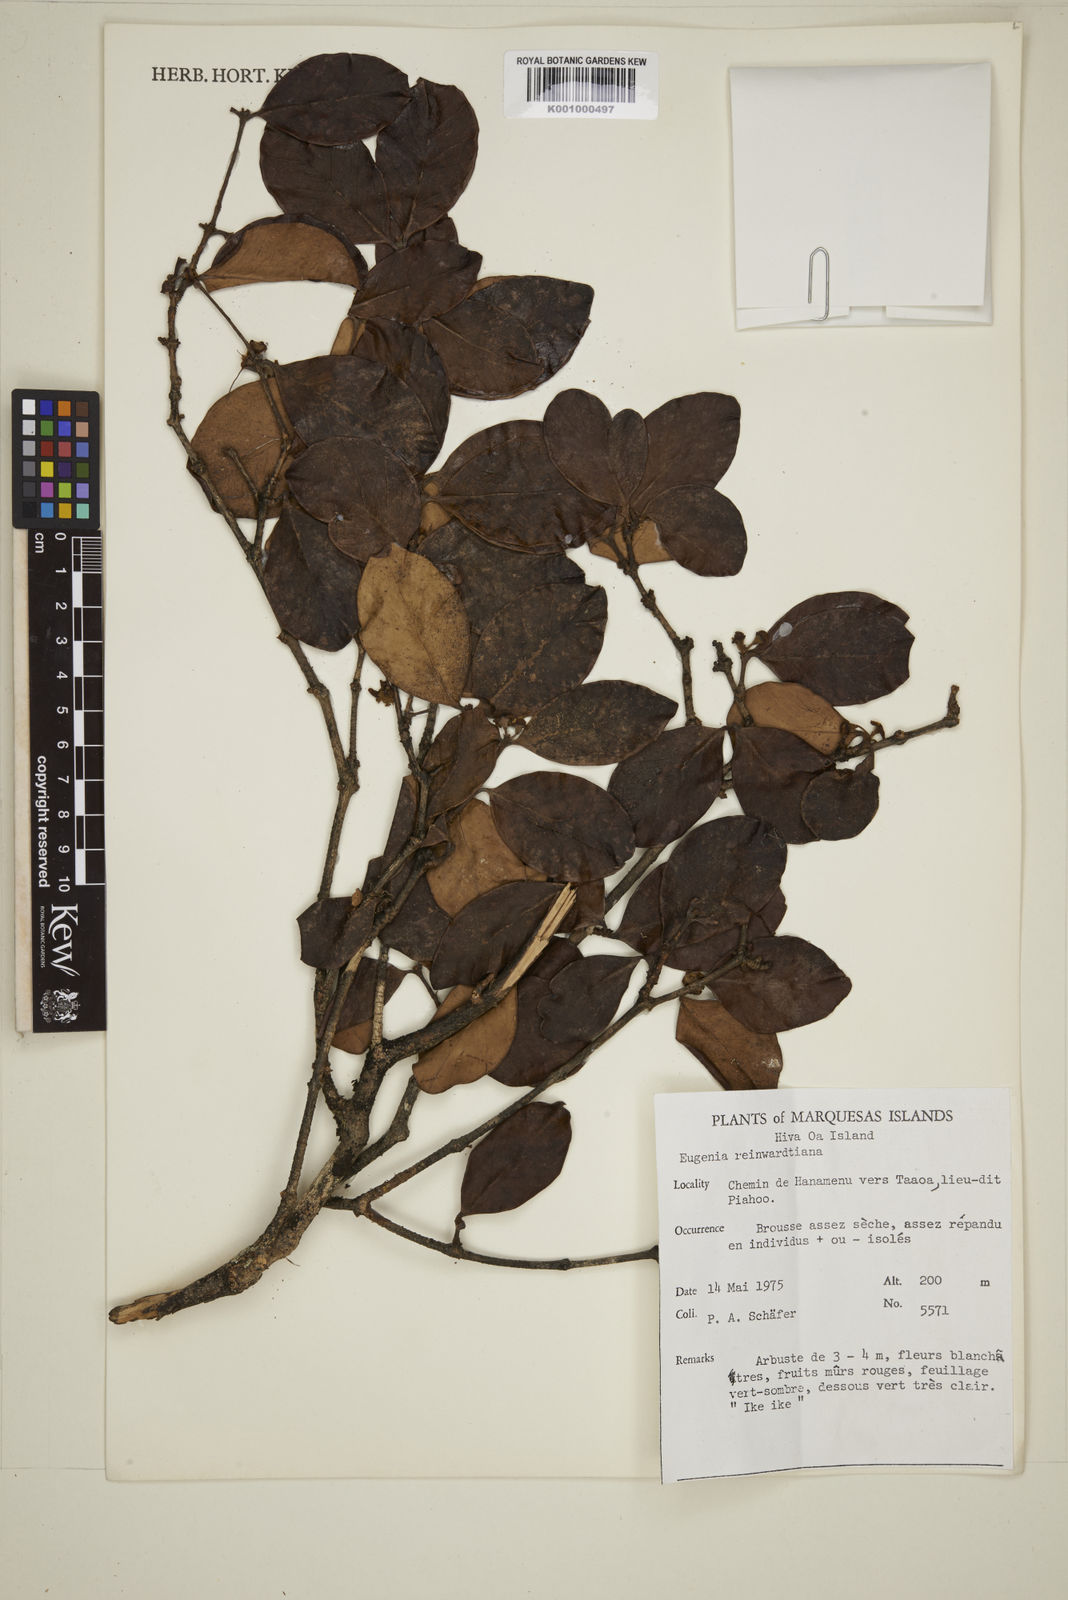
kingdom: Plantae
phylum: Tracheophyta
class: Magnoliopsida
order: Myrtales
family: Myrtaceae
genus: Eugenia
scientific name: Eugenia reinwardtiana
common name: Cedar bay-cherry
